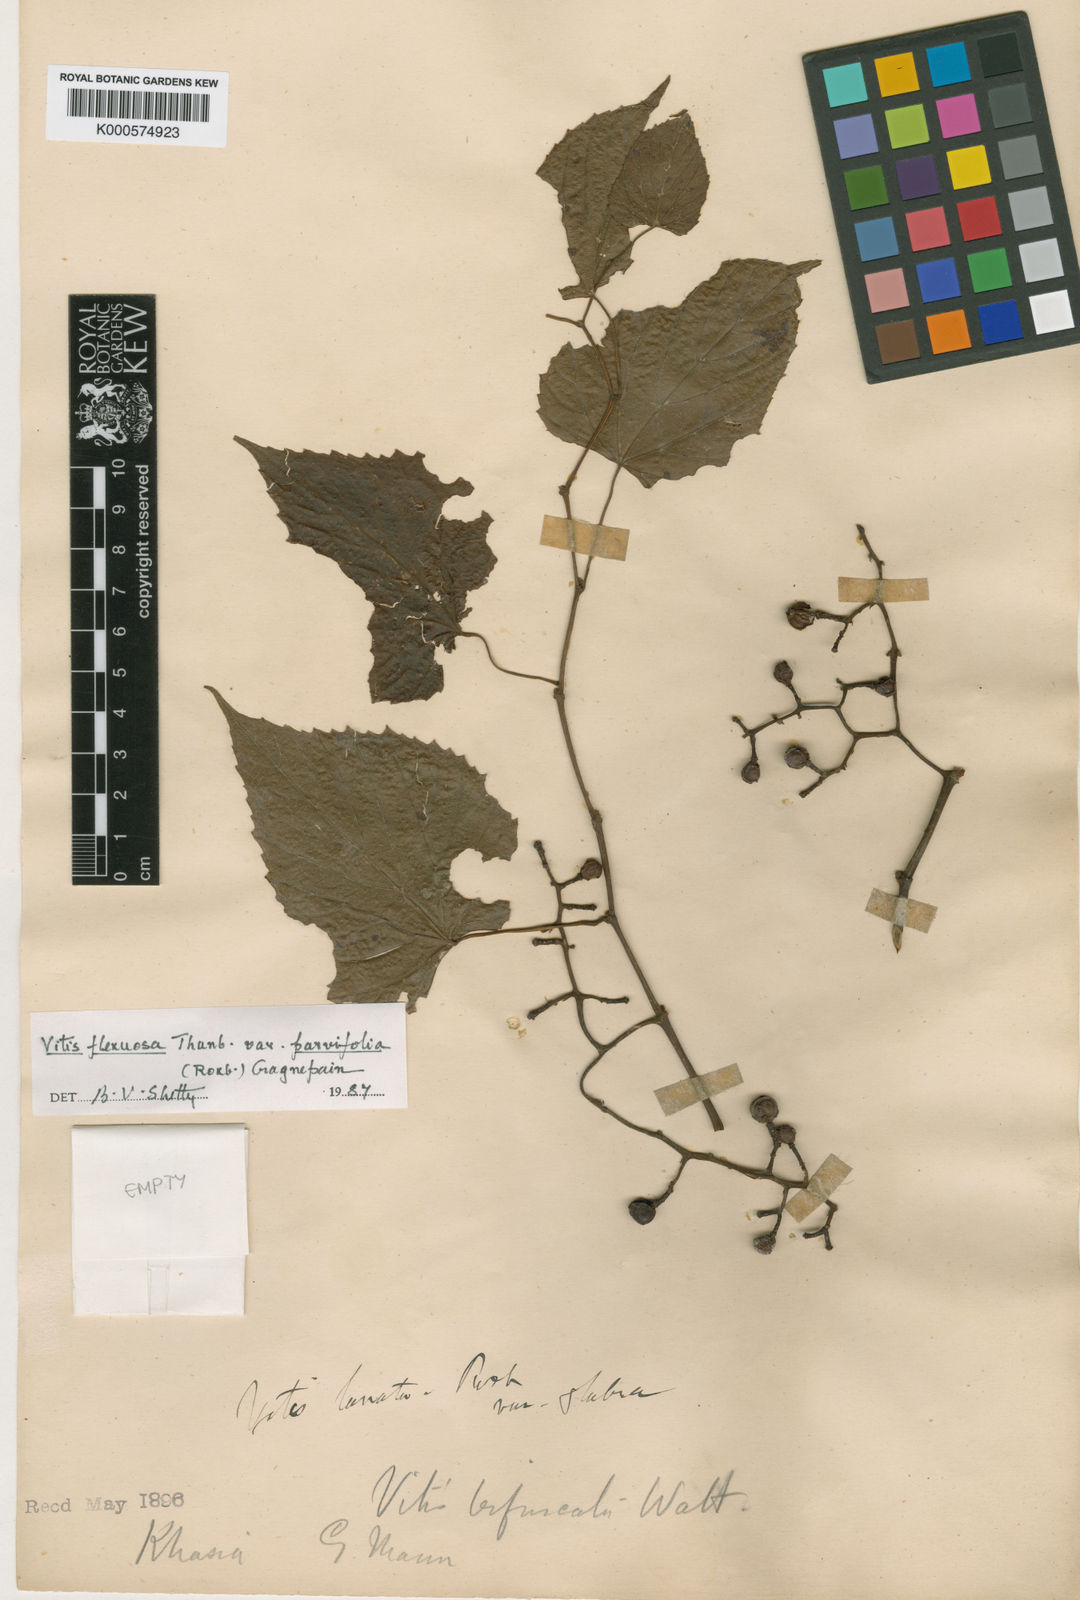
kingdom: Plantae
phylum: Tracheophyta
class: Magnoliopsida
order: Vitales
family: Vitaceae
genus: Vitis
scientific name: Vitis flexuosa
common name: Creeping grape
